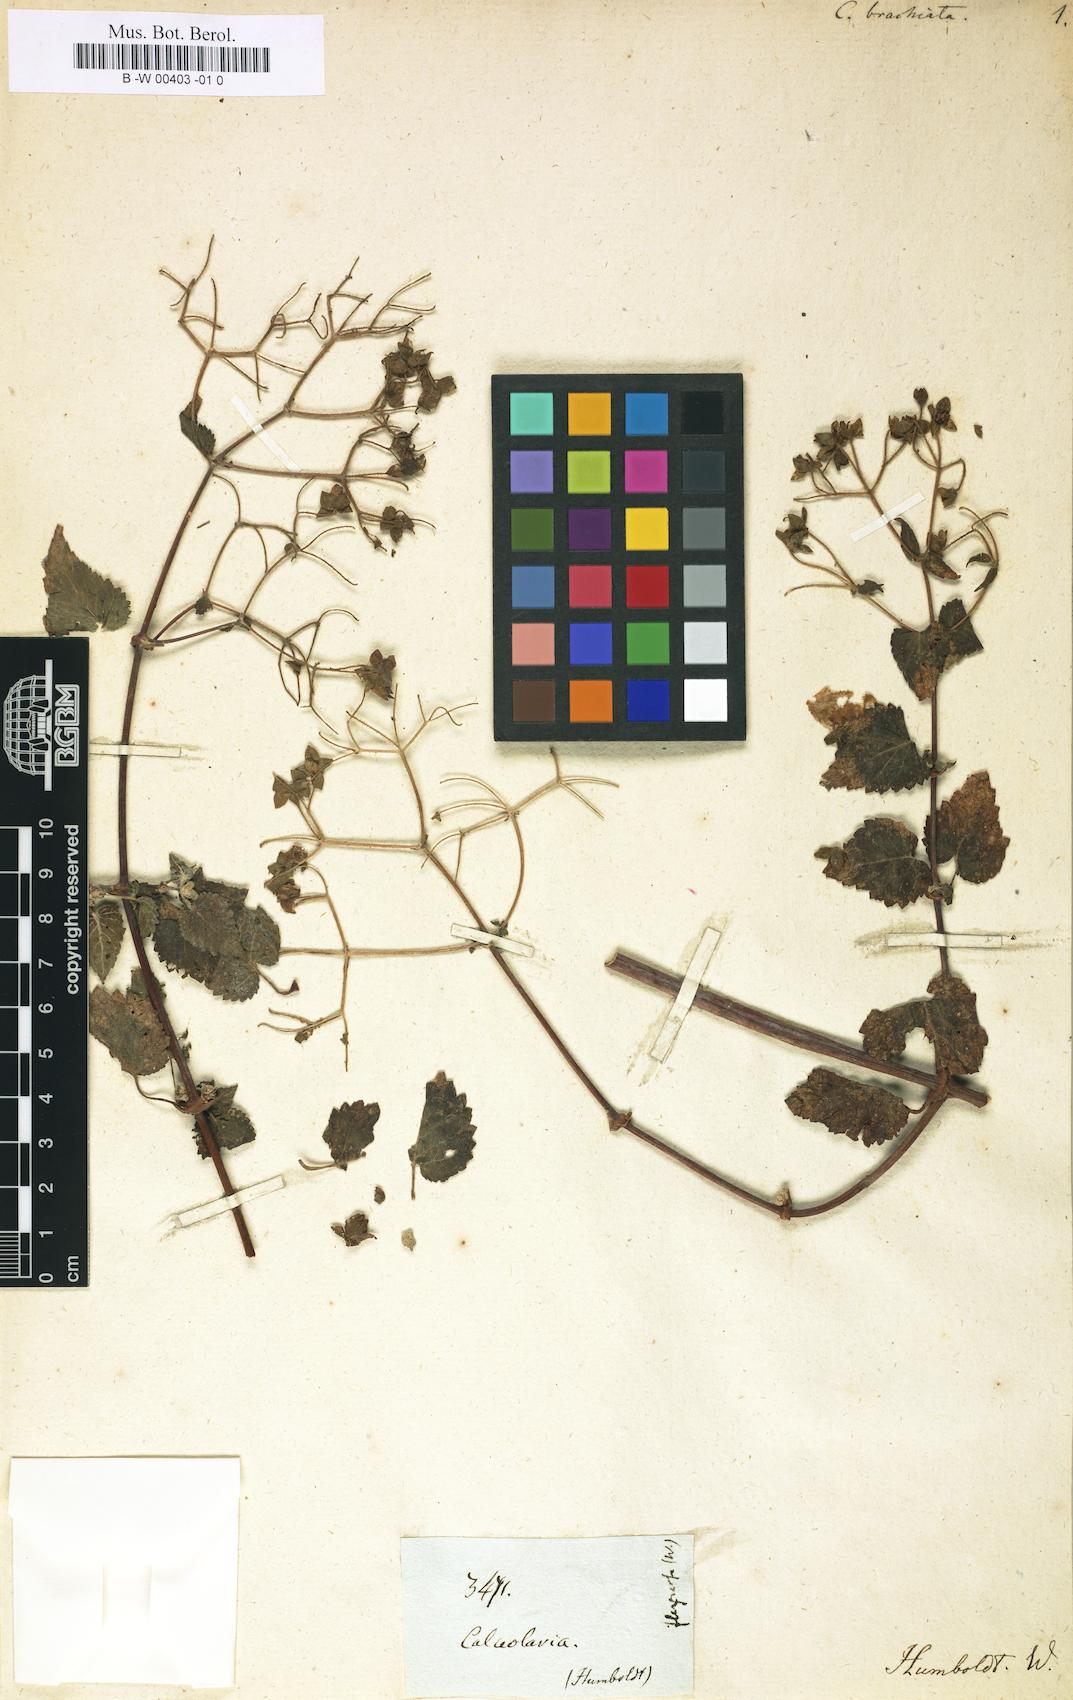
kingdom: Plantae
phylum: Tracheophyta
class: Magnoliopsida
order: Lamiales
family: Calceolariaceae
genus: Calceolaria
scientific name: Calceolaria brachiata
